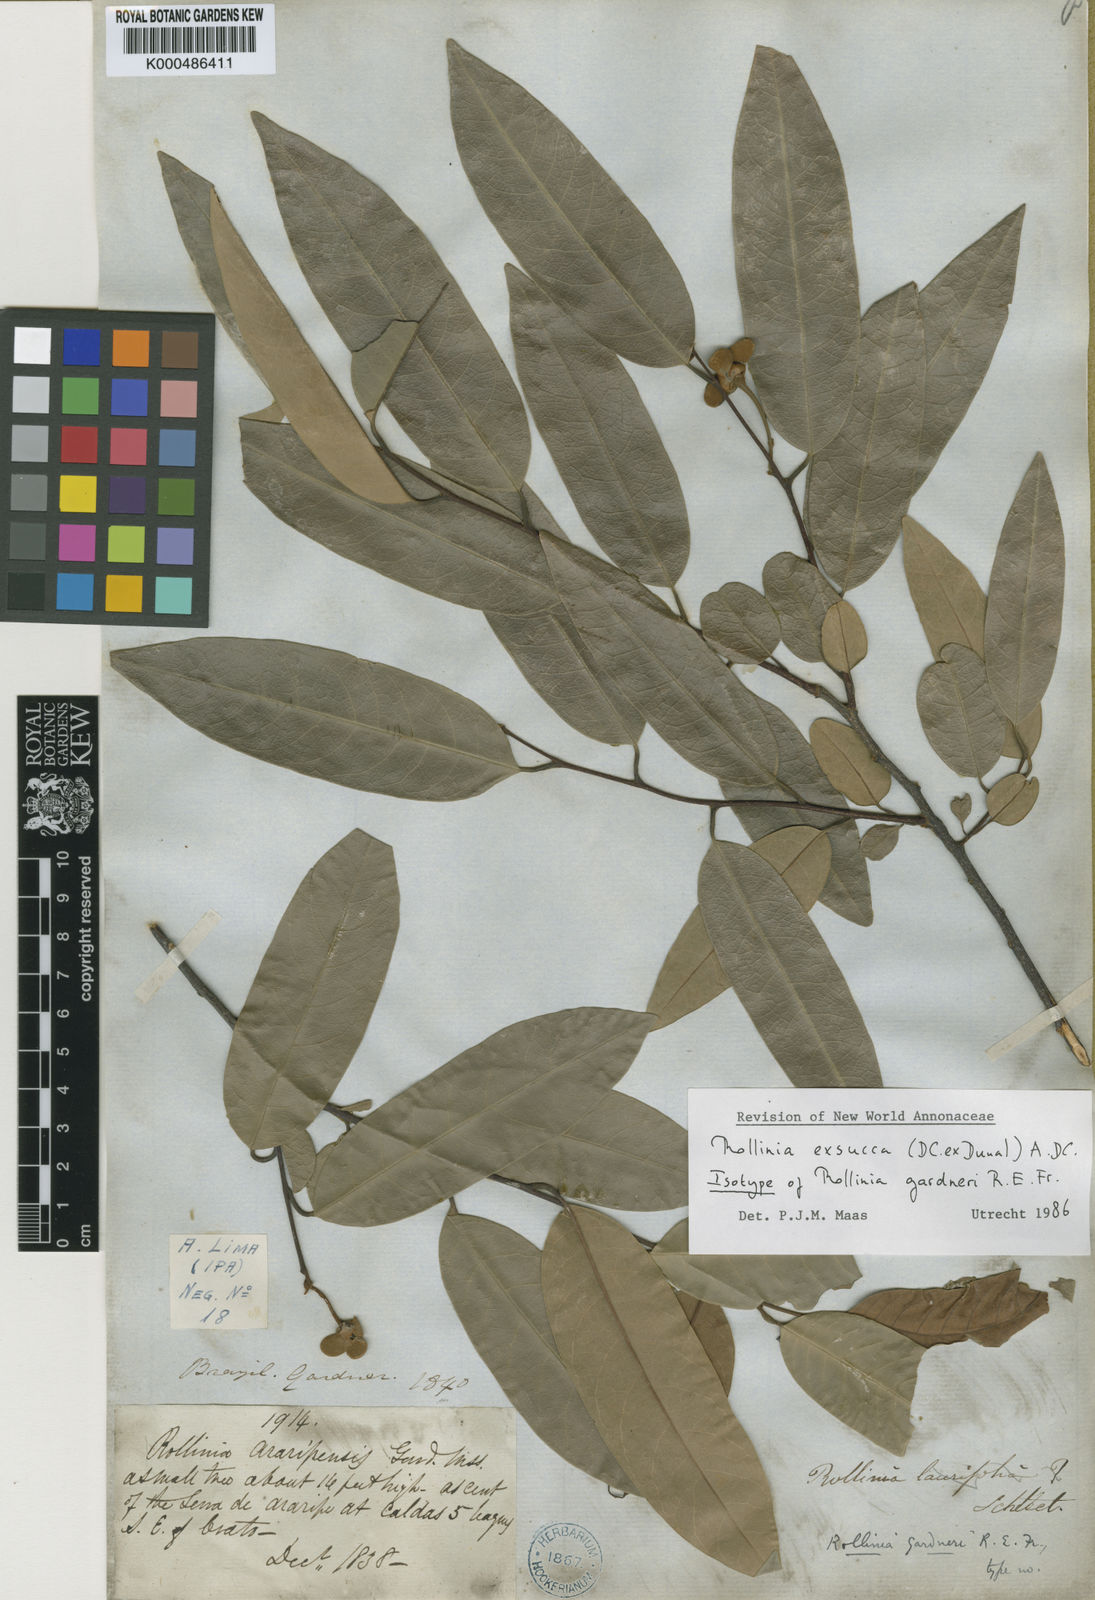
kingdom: Plantae
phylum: Tracheophyta
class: Magnoliopsida
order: Magnoliales
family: Annonaceae
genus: Annona
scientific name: Annona
